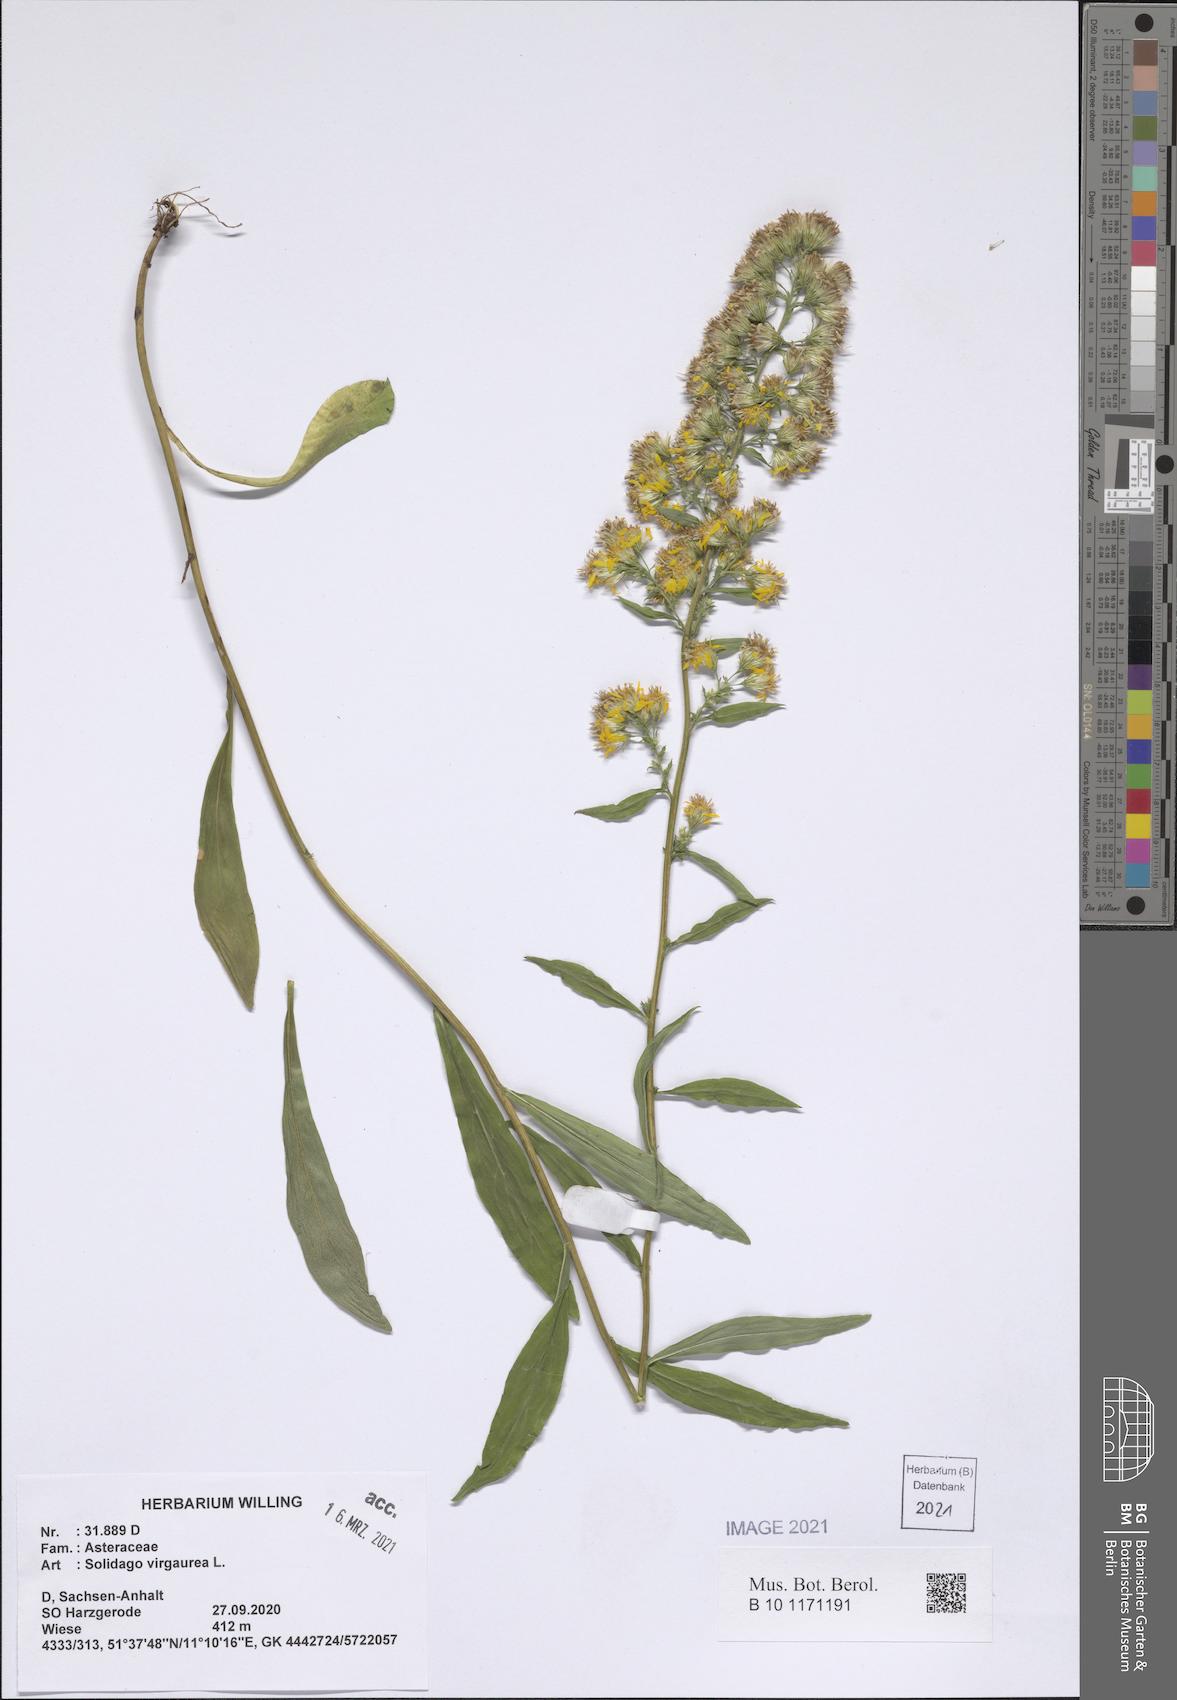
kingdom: Plantae
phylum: Tracheophyta
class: Magnoliopsida
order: Asterales
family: Asteraceae
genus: Solidago
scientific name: Solidago virgaurea
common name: Goldenrod
